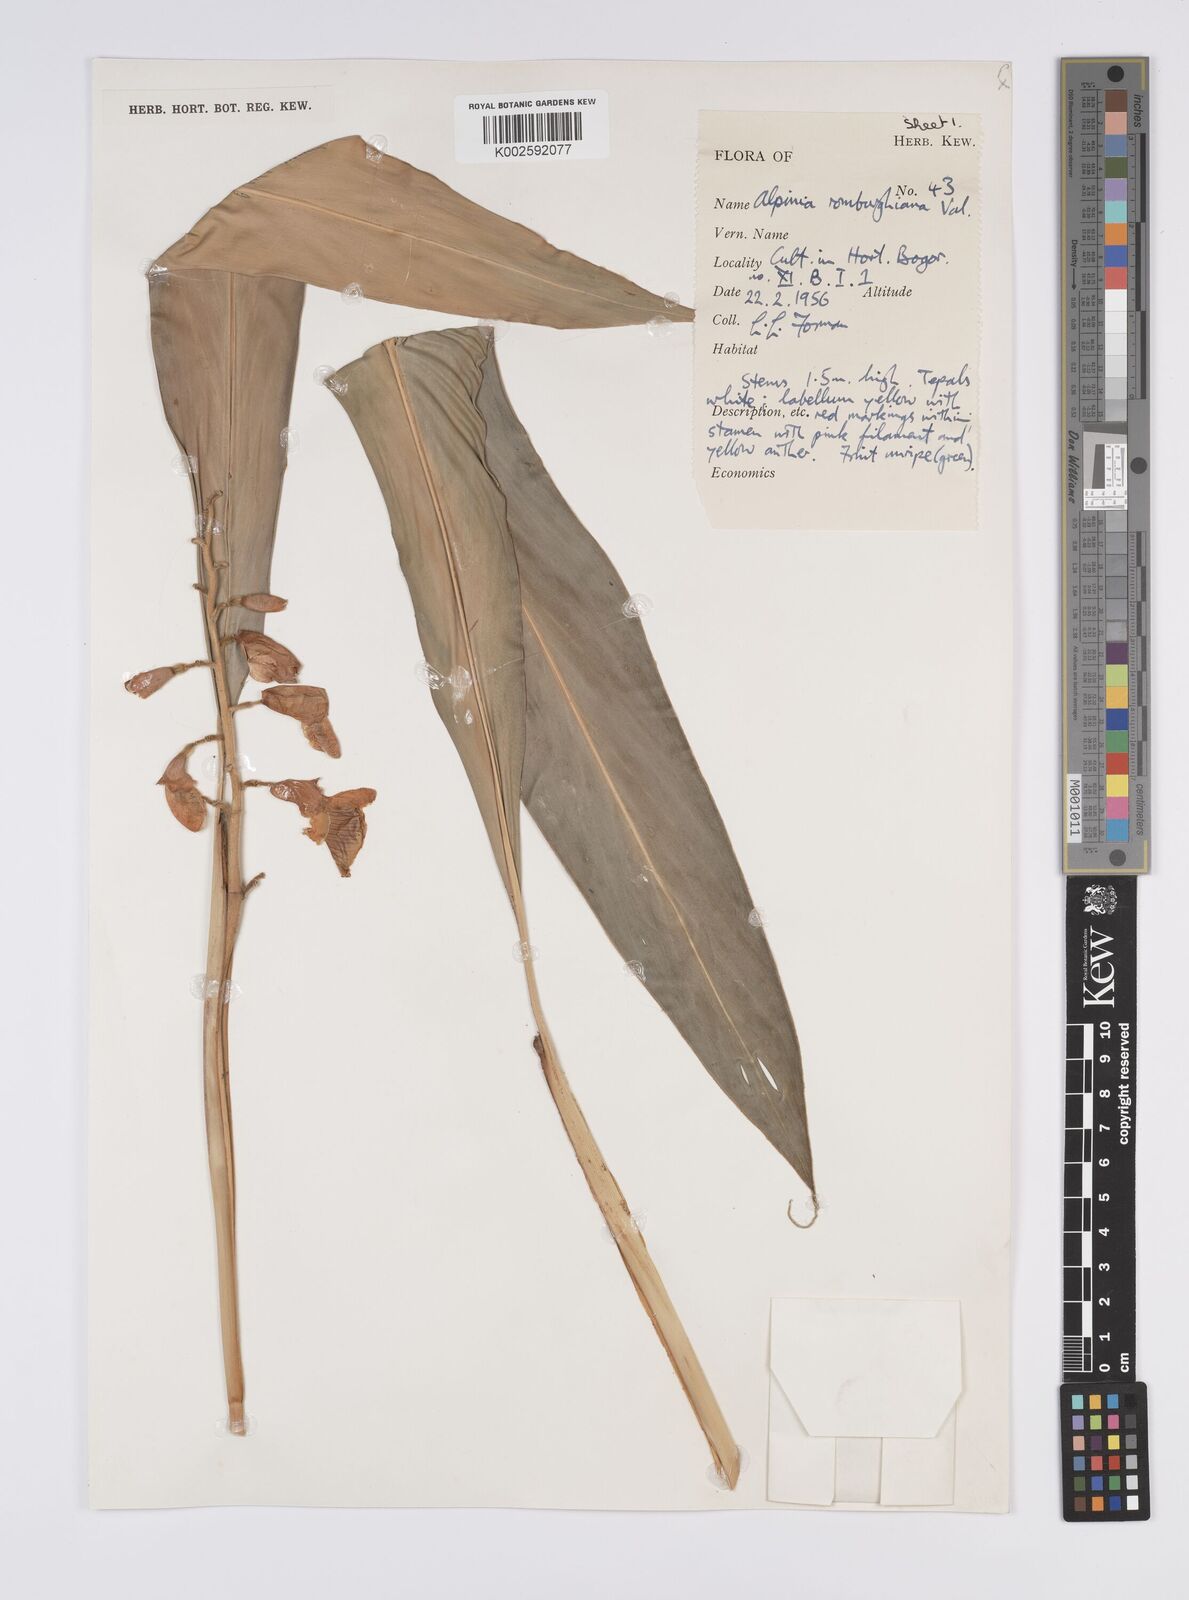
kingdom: Plantae
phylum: Tracheophyta
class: Liliopsida
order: Zingiberales
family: Zingiberaceae
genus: Alpinia
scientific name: Alpinia romburghiana
